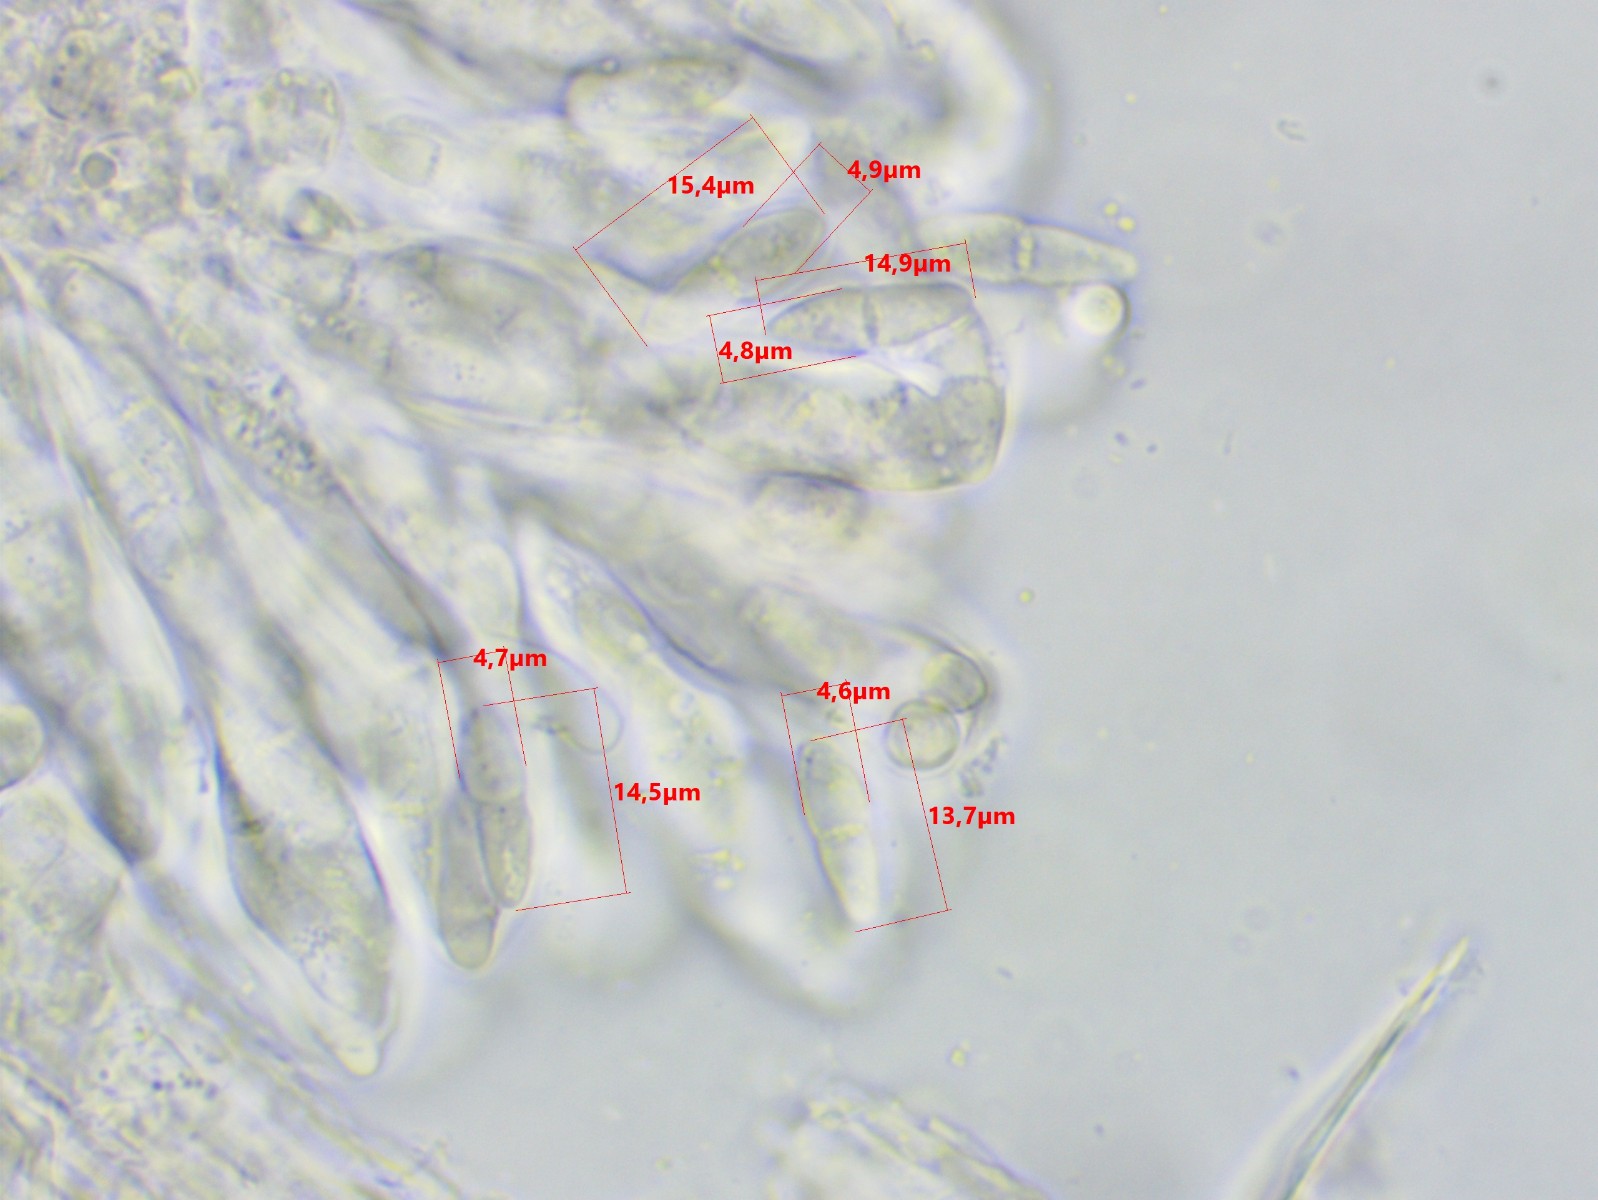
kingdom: Fungi
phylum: Ascomycota
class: Dothideomycetes
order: Mycosphaerellales
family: Mycosphaerellaceae
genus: Mycosphaerella
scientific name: Mycosphaerella superflua
